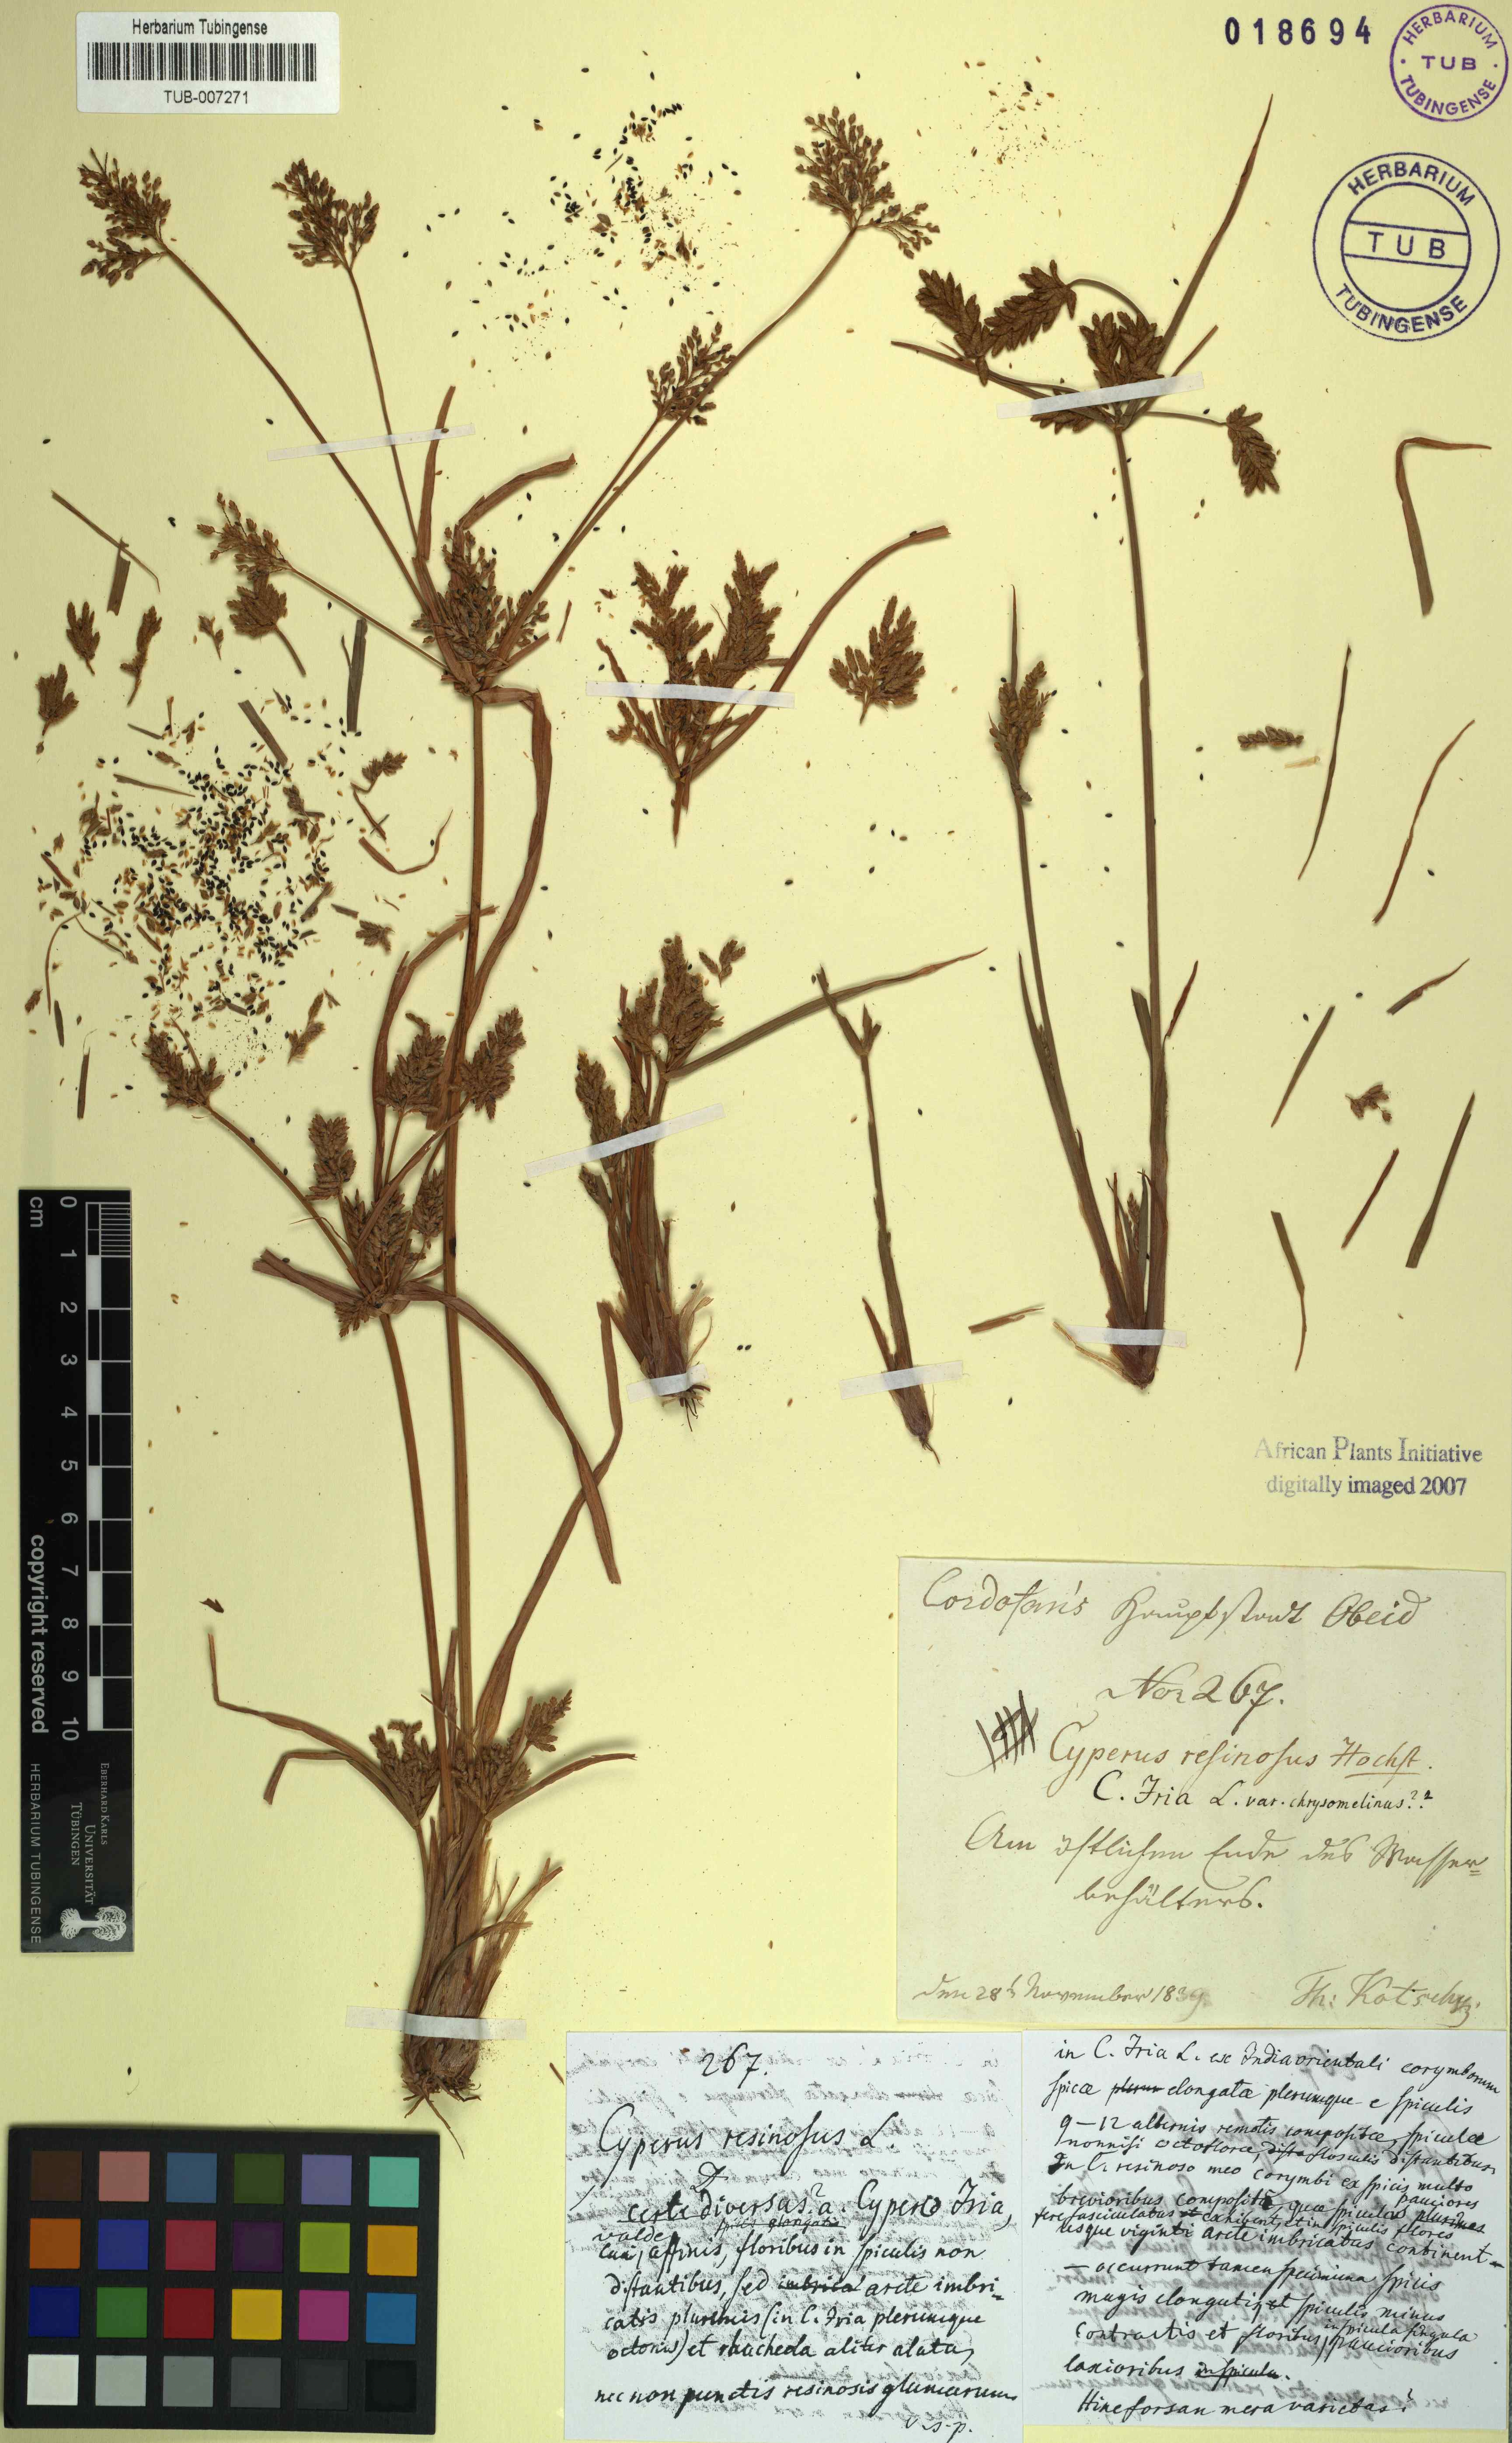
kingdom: Plantae
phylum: Tracheophyta
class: Liliopsida
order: Poales
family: Cyperaceae
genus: Cyperus
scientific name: Cyperus iria
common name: Ricefield flatsedge
